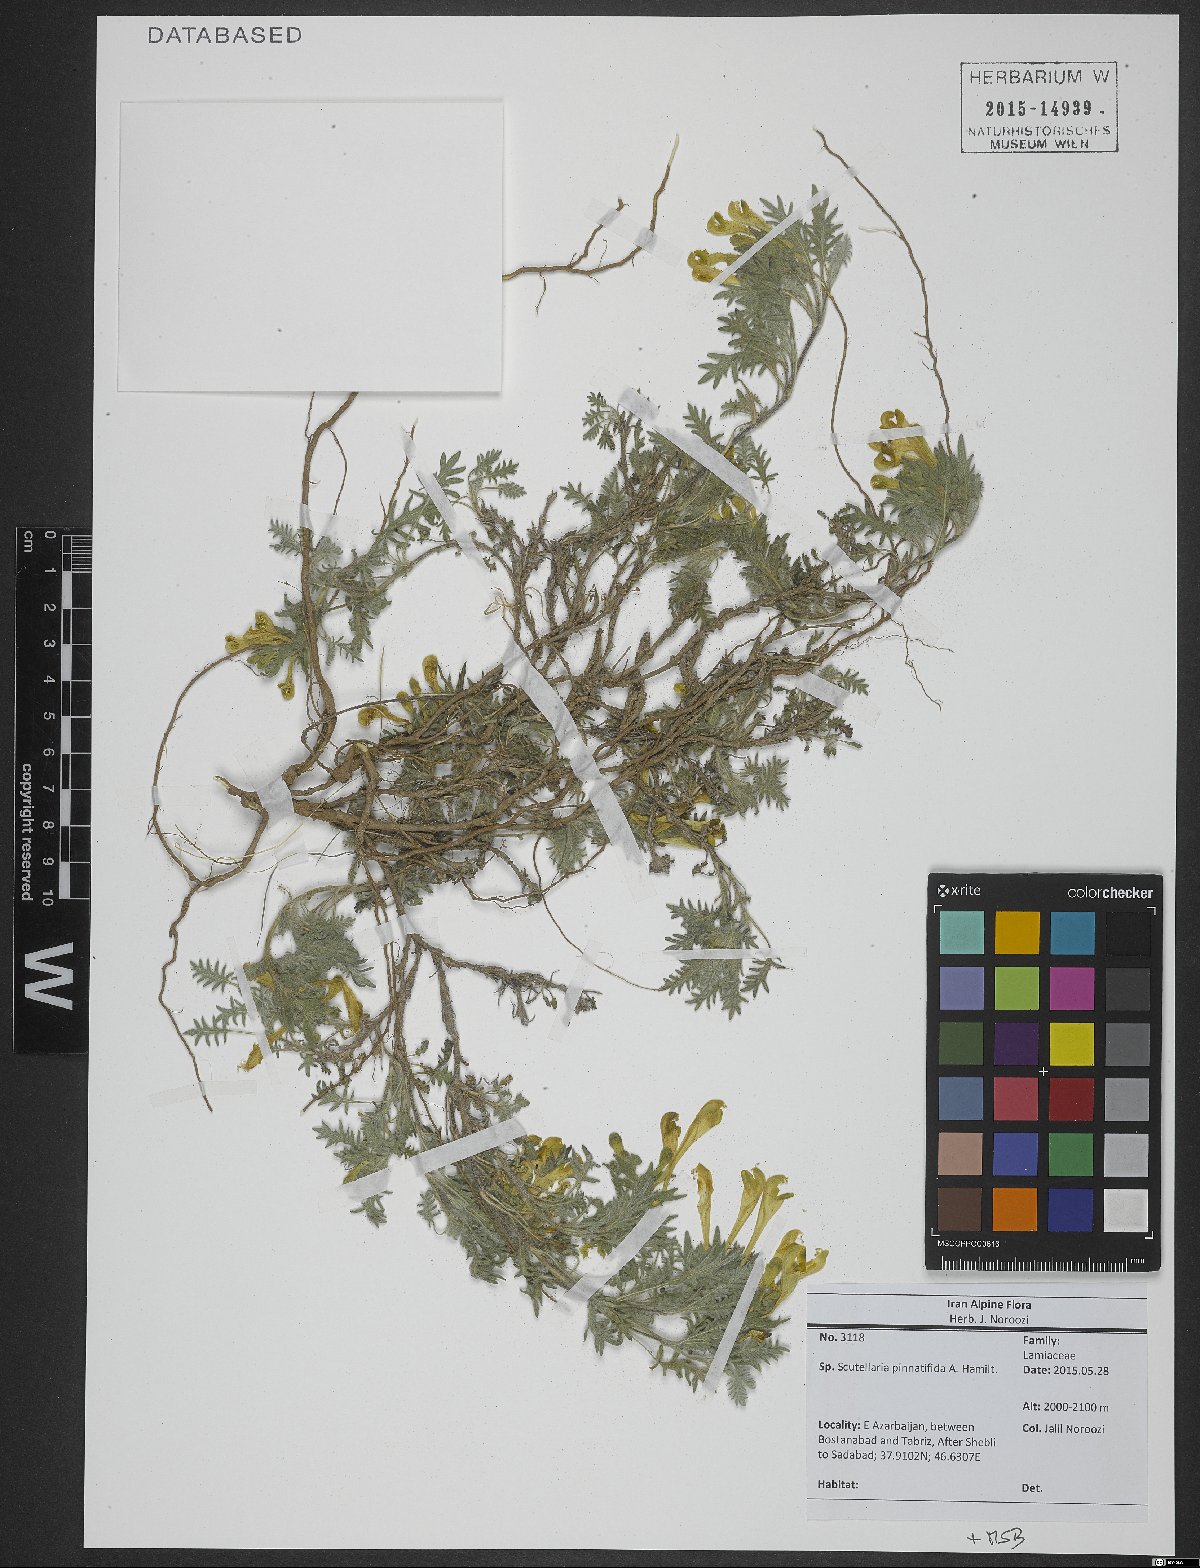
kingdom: Plantae
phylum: Tracheophyta
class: Magnoliopsida
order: Lamiales
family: Lamiaceae
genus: Scutellaria
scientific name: Scutellaria pinnatifida
